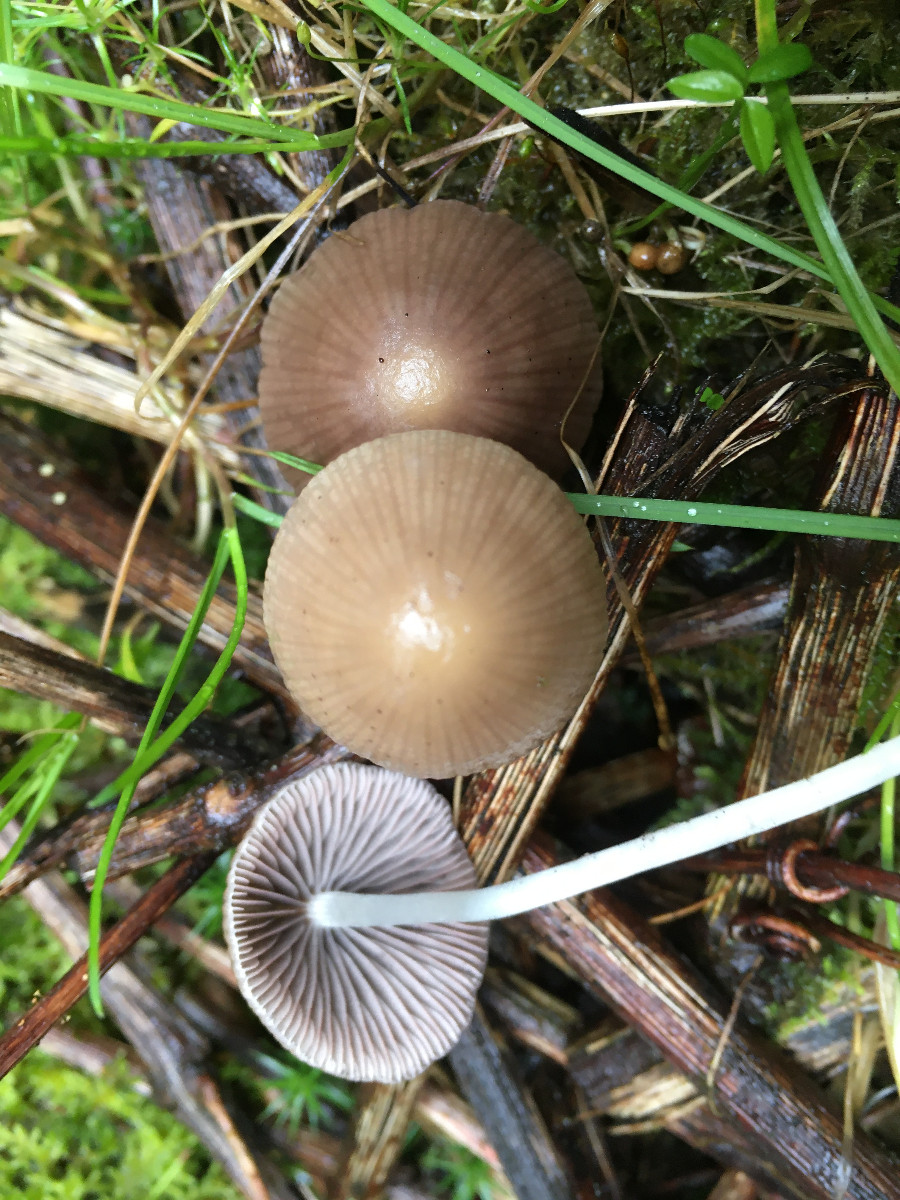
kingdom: Fungi
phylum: Basidiomycota
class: Agaricomycetes
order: Agaricales
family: Psathyrellaceae
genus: Psathyrella
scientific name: Psathyrella
